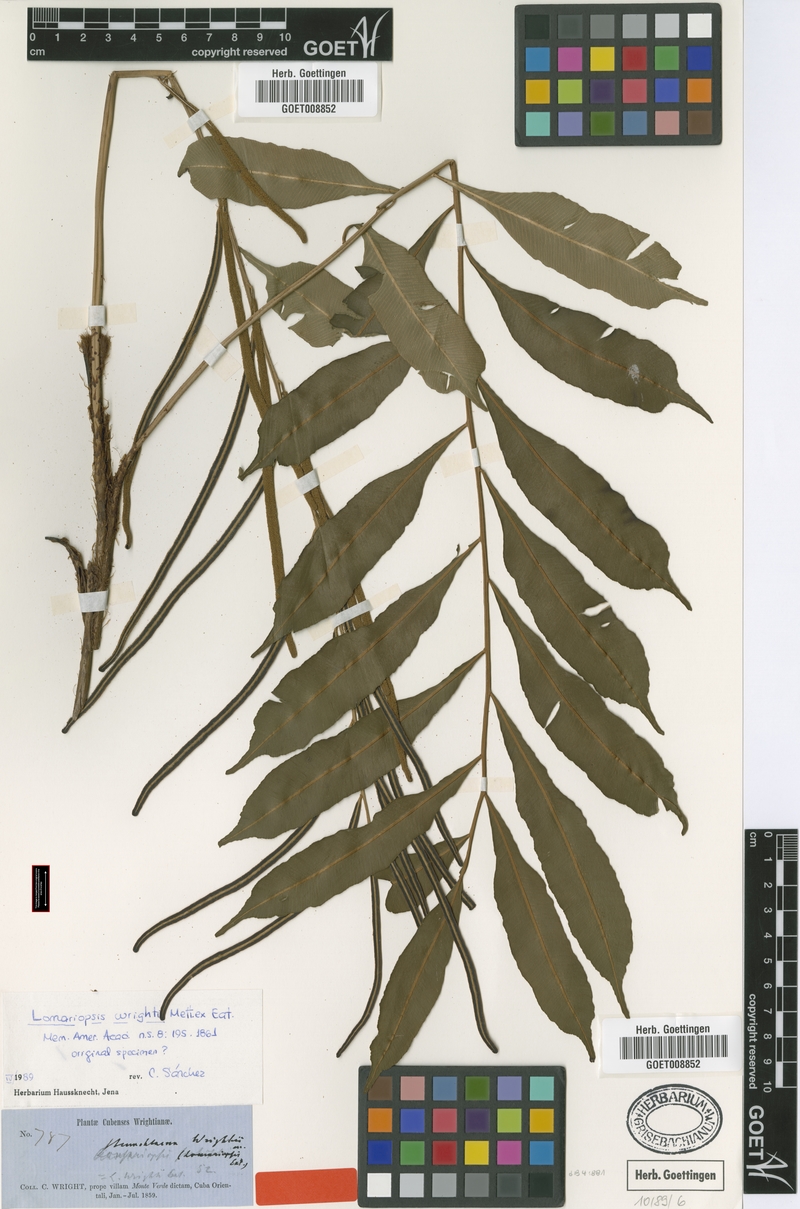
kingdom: Plantae
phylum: Tracheophyta
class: Polypodiopsida
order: Polypodiales
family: Lomariopsidaceae
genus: Lomariopsis
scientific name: Lomariopsis wrightii
